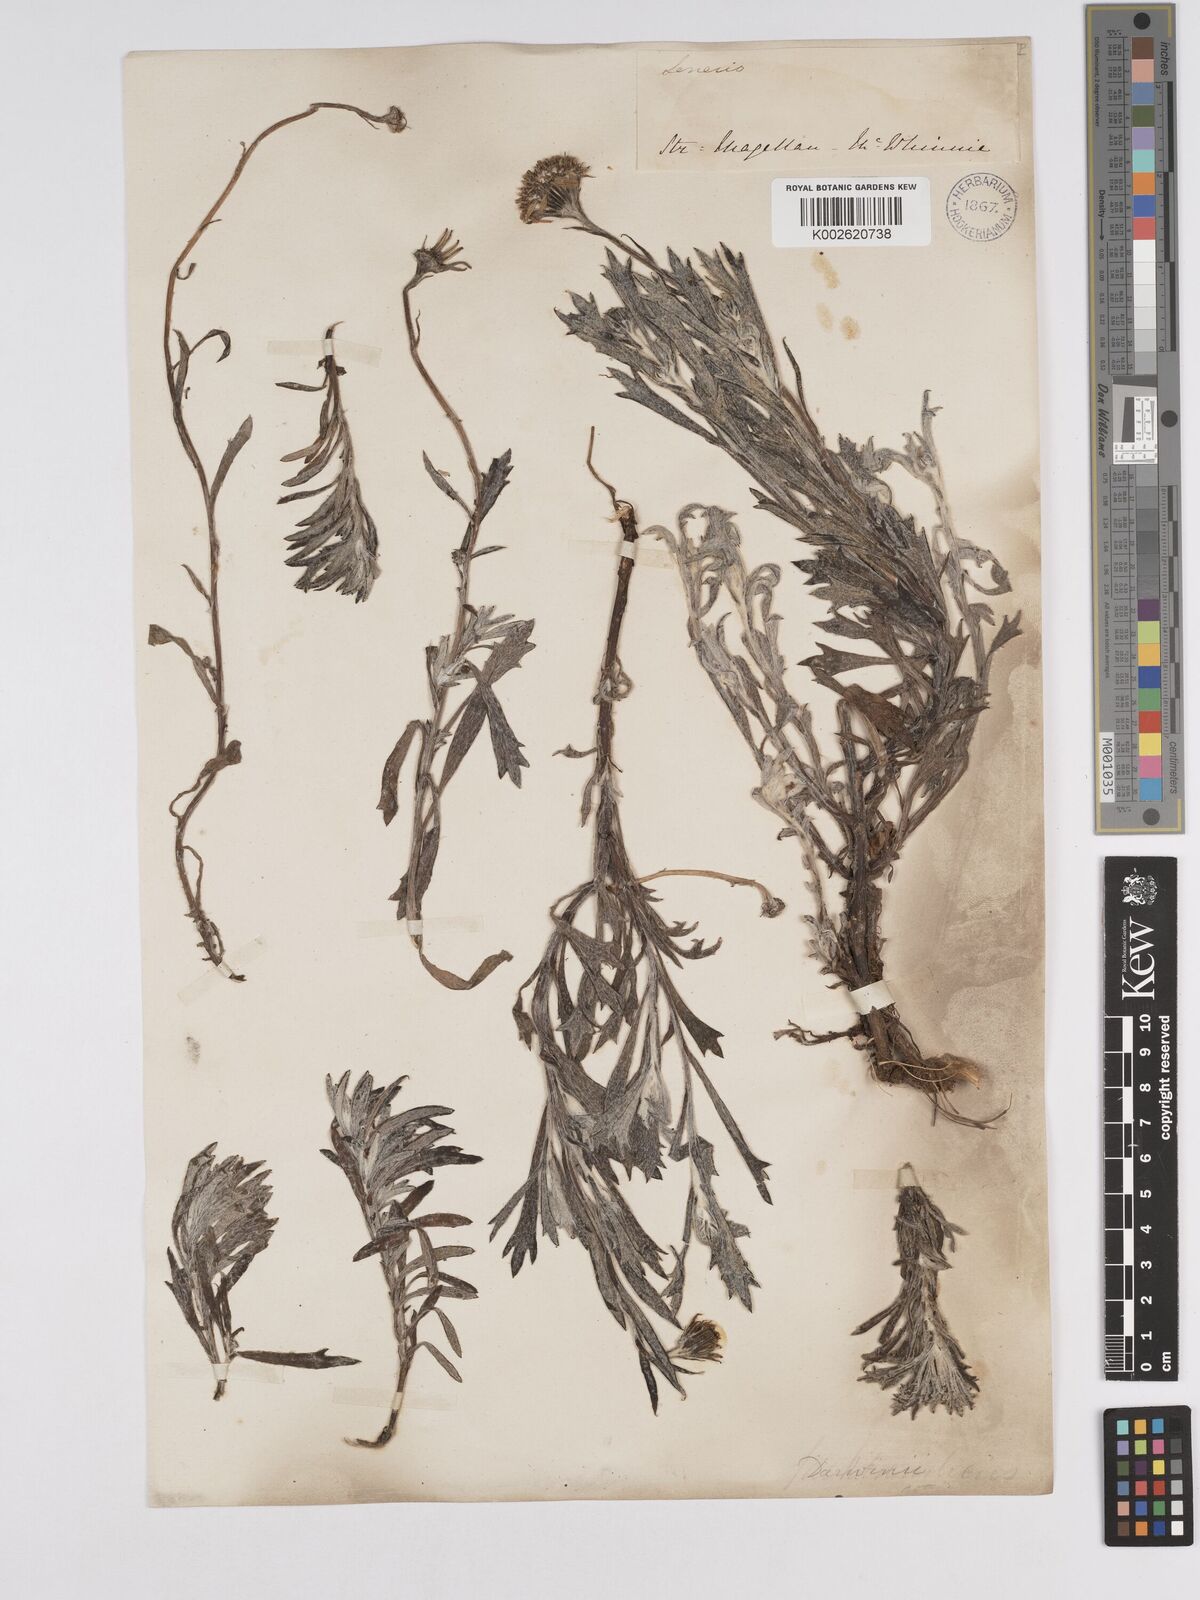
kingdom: Plantae
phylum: Tracheophyta
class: Magnoliopsida
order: Asterales
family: Asteraceae
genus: Senecio
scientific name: Senecio darwinii
